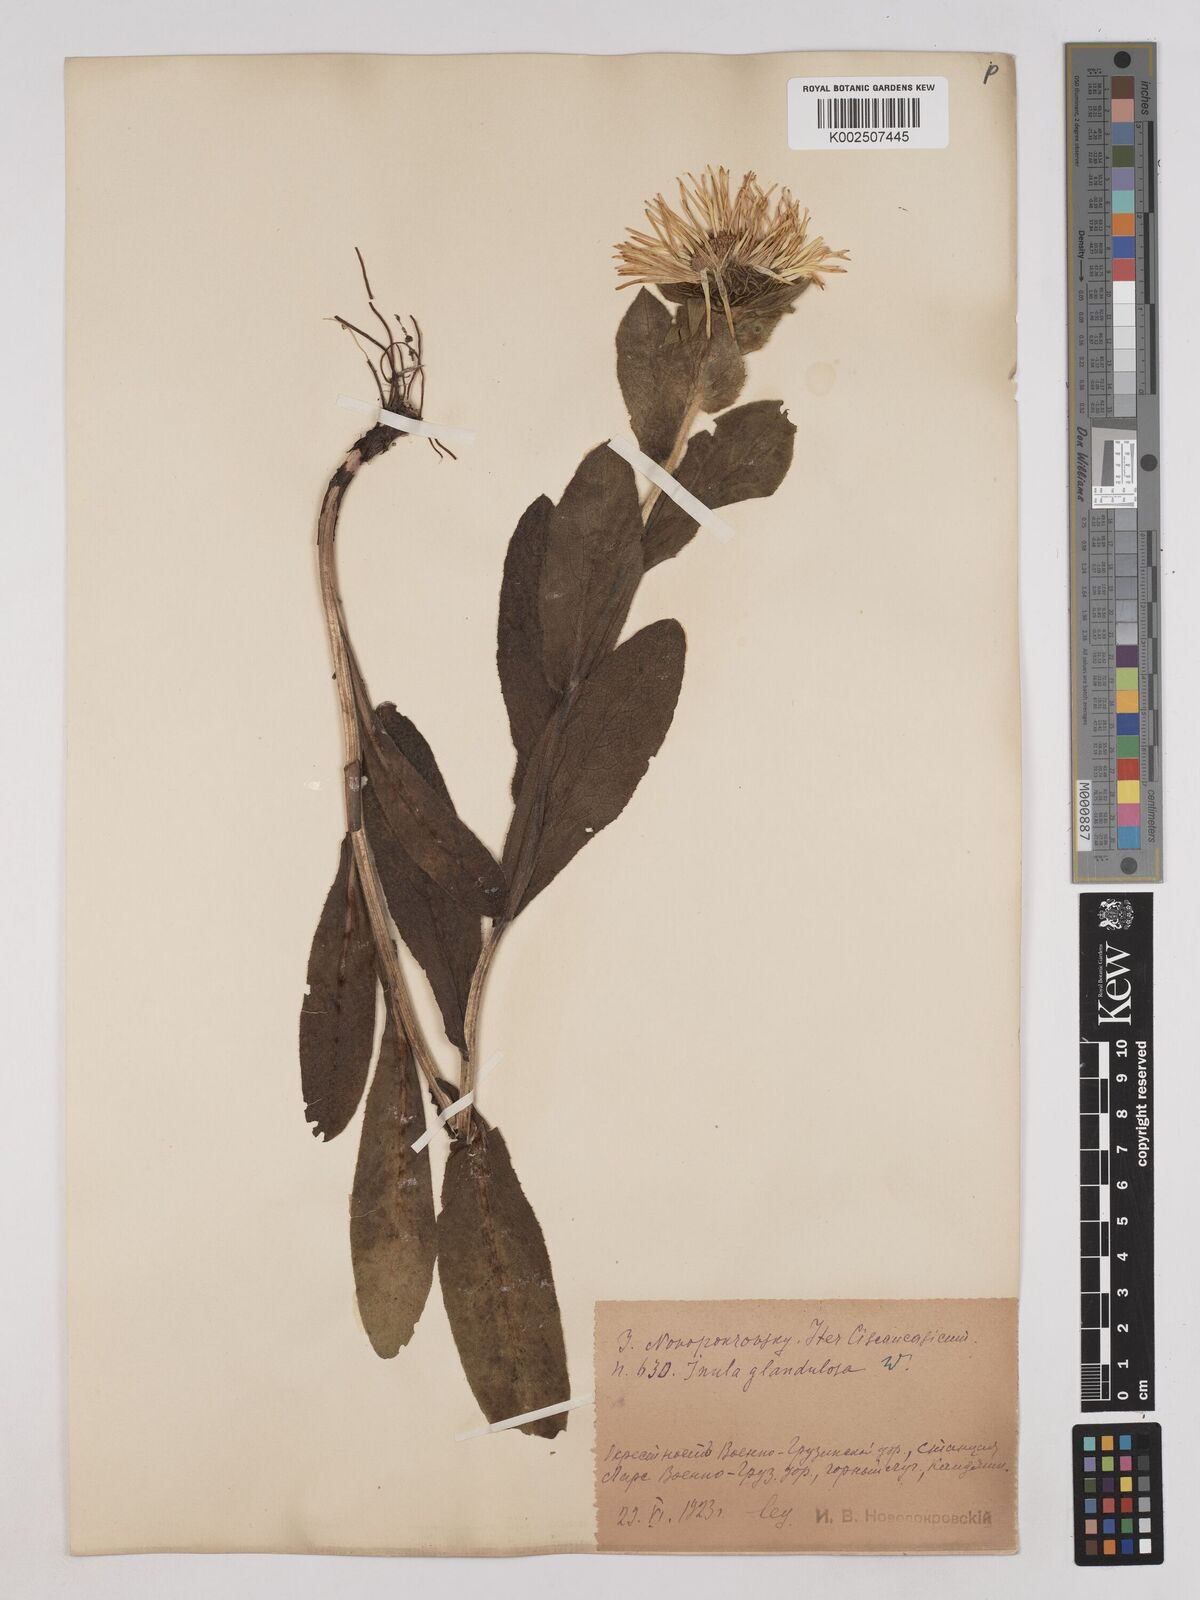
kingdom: Plantae
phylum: Tracheophyta
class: Magnoliopsida
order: Asterales
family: Asteraceae
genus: Pentanema
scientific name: Pentanema orientale
